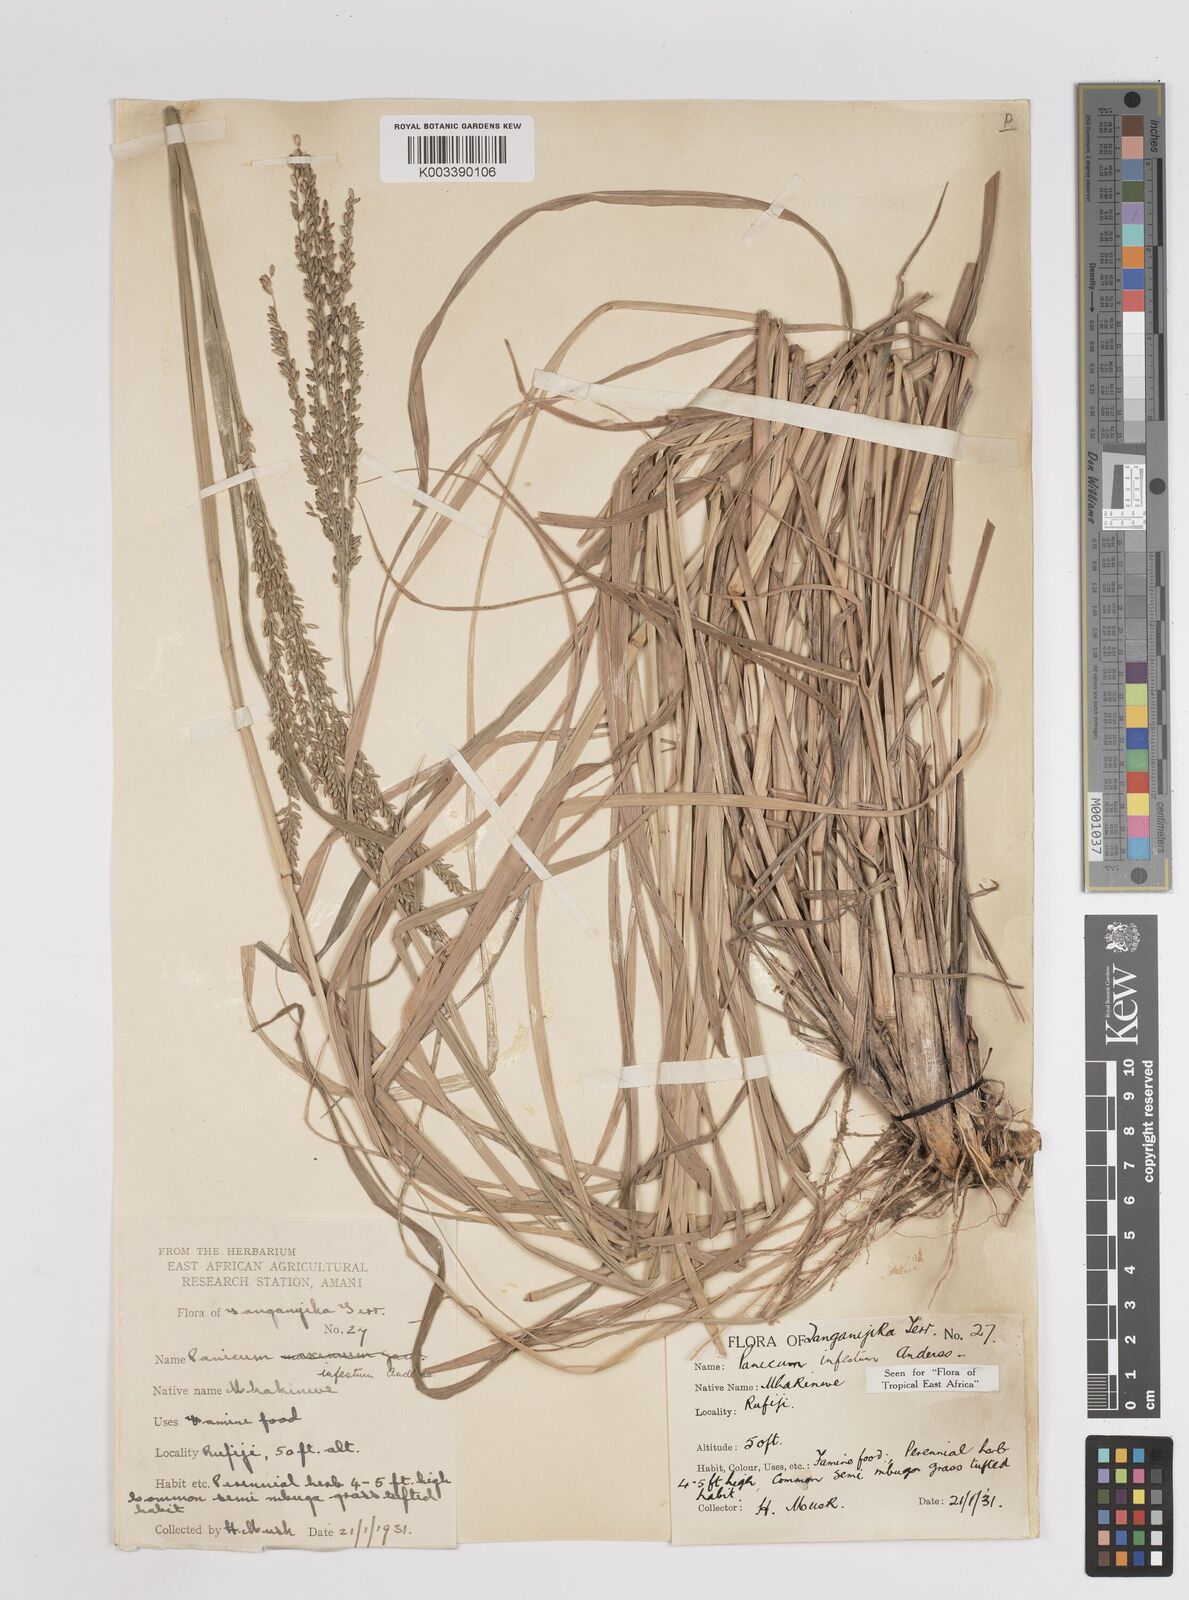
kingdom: Plantae
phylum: Tracheophyta
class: Liliopsida
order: Poales
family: Poaceae
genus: Megathyrsus
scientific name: Megathyrsus infestus
